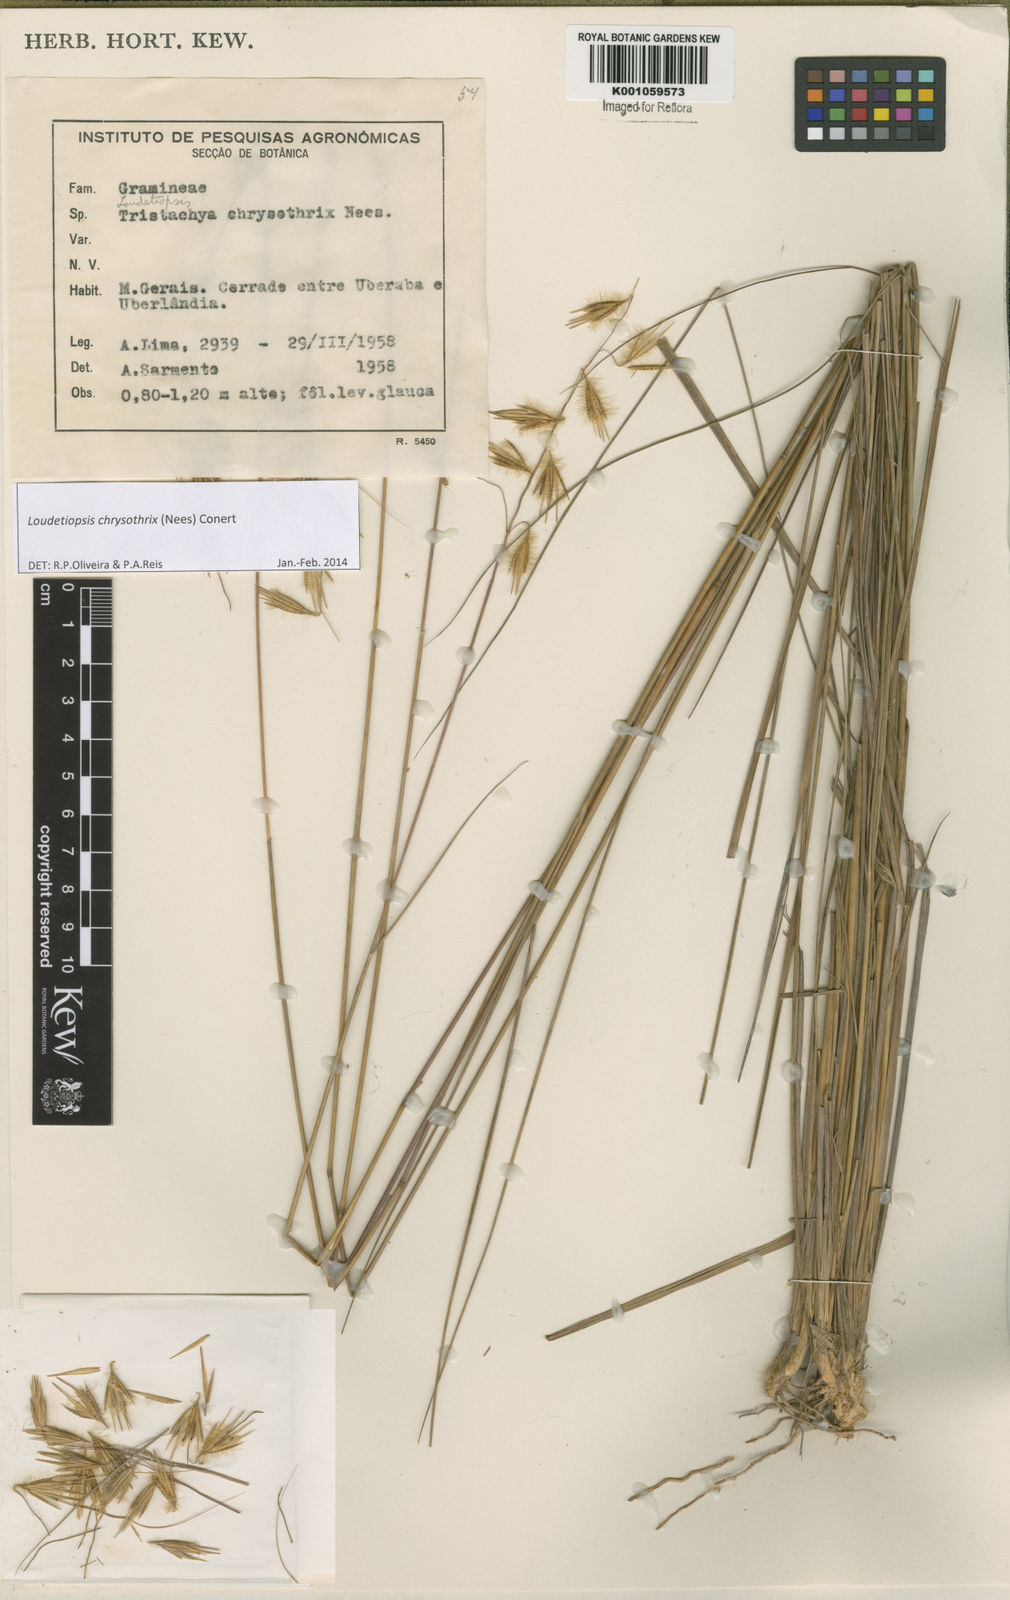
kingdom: Plantae
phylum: Tracheophyta
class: Liliopsida
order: Poales
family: Poaceae
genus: Loudetiopsis
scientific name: Loudetiopsis chrysothrix
